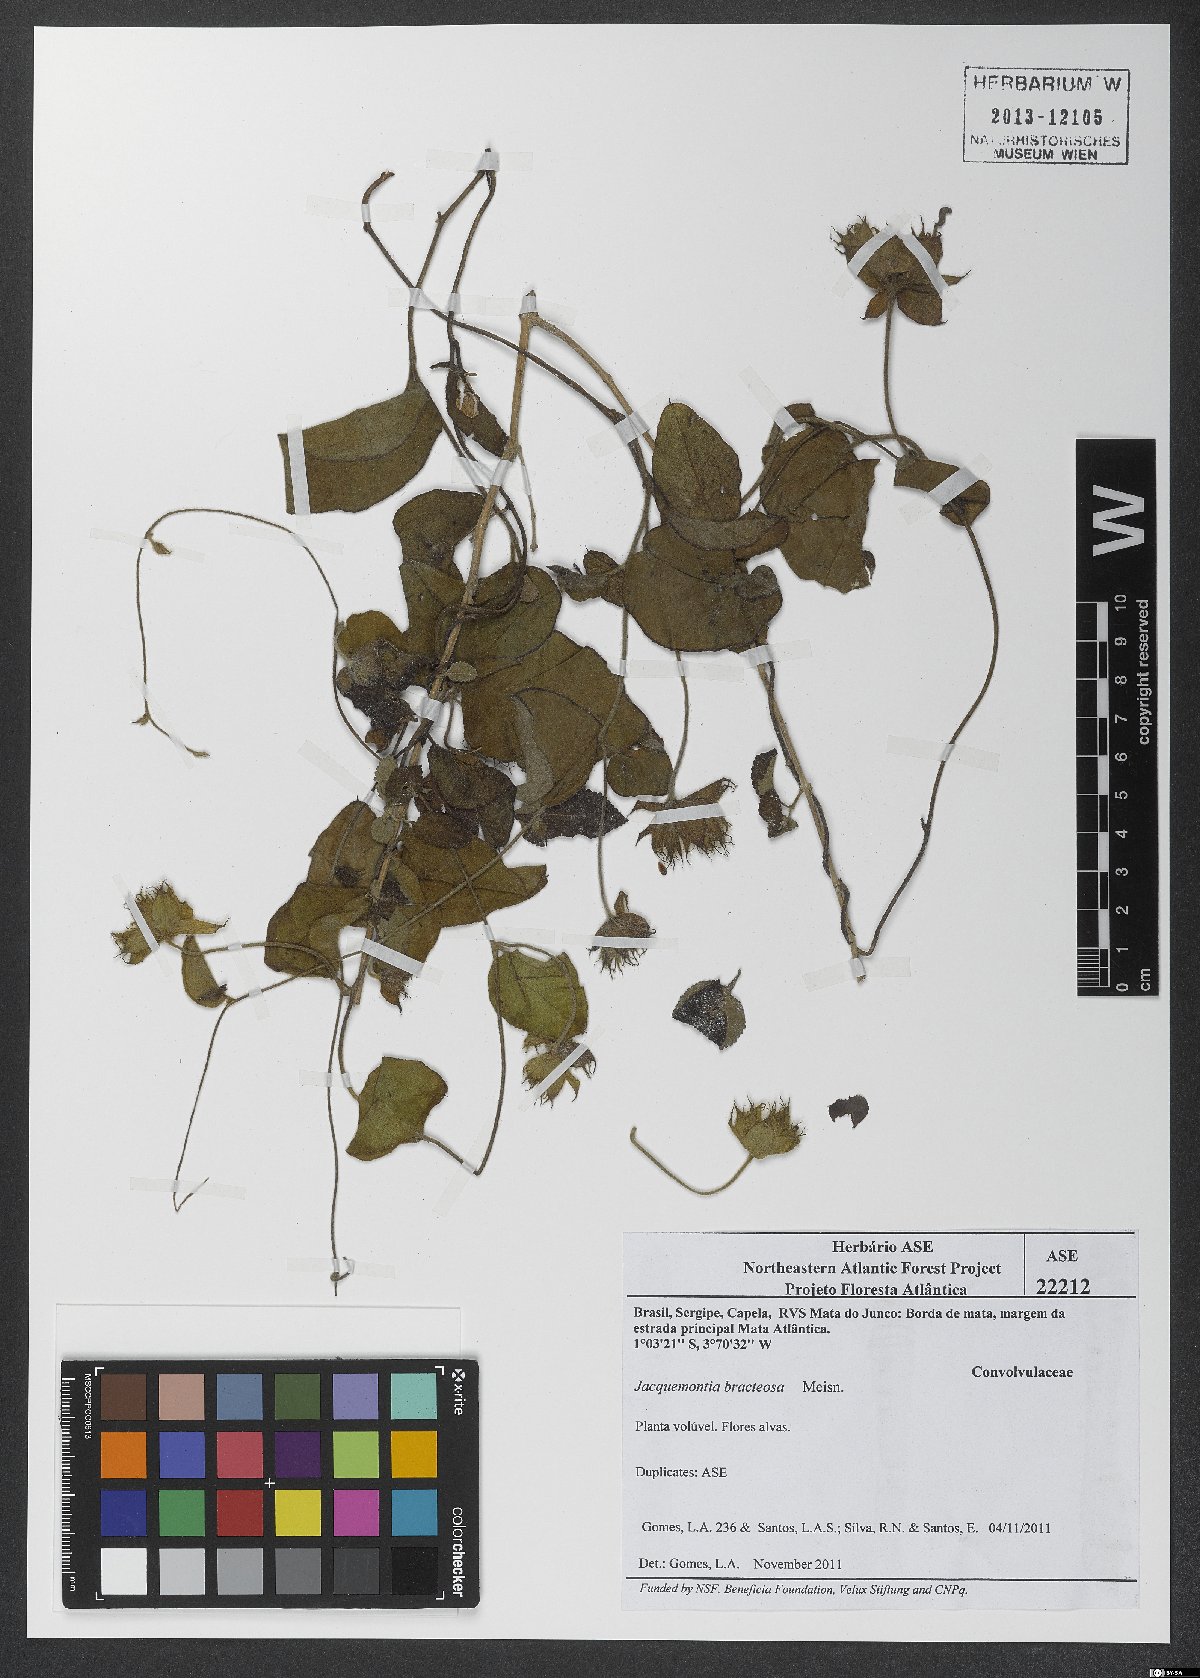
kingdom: Plantae
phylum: Tracheophyta
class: Magnoliopsida
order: Solanales
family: Convolvulaceae
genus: Jacquemontia
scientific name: Jacquemontia bracteosa
